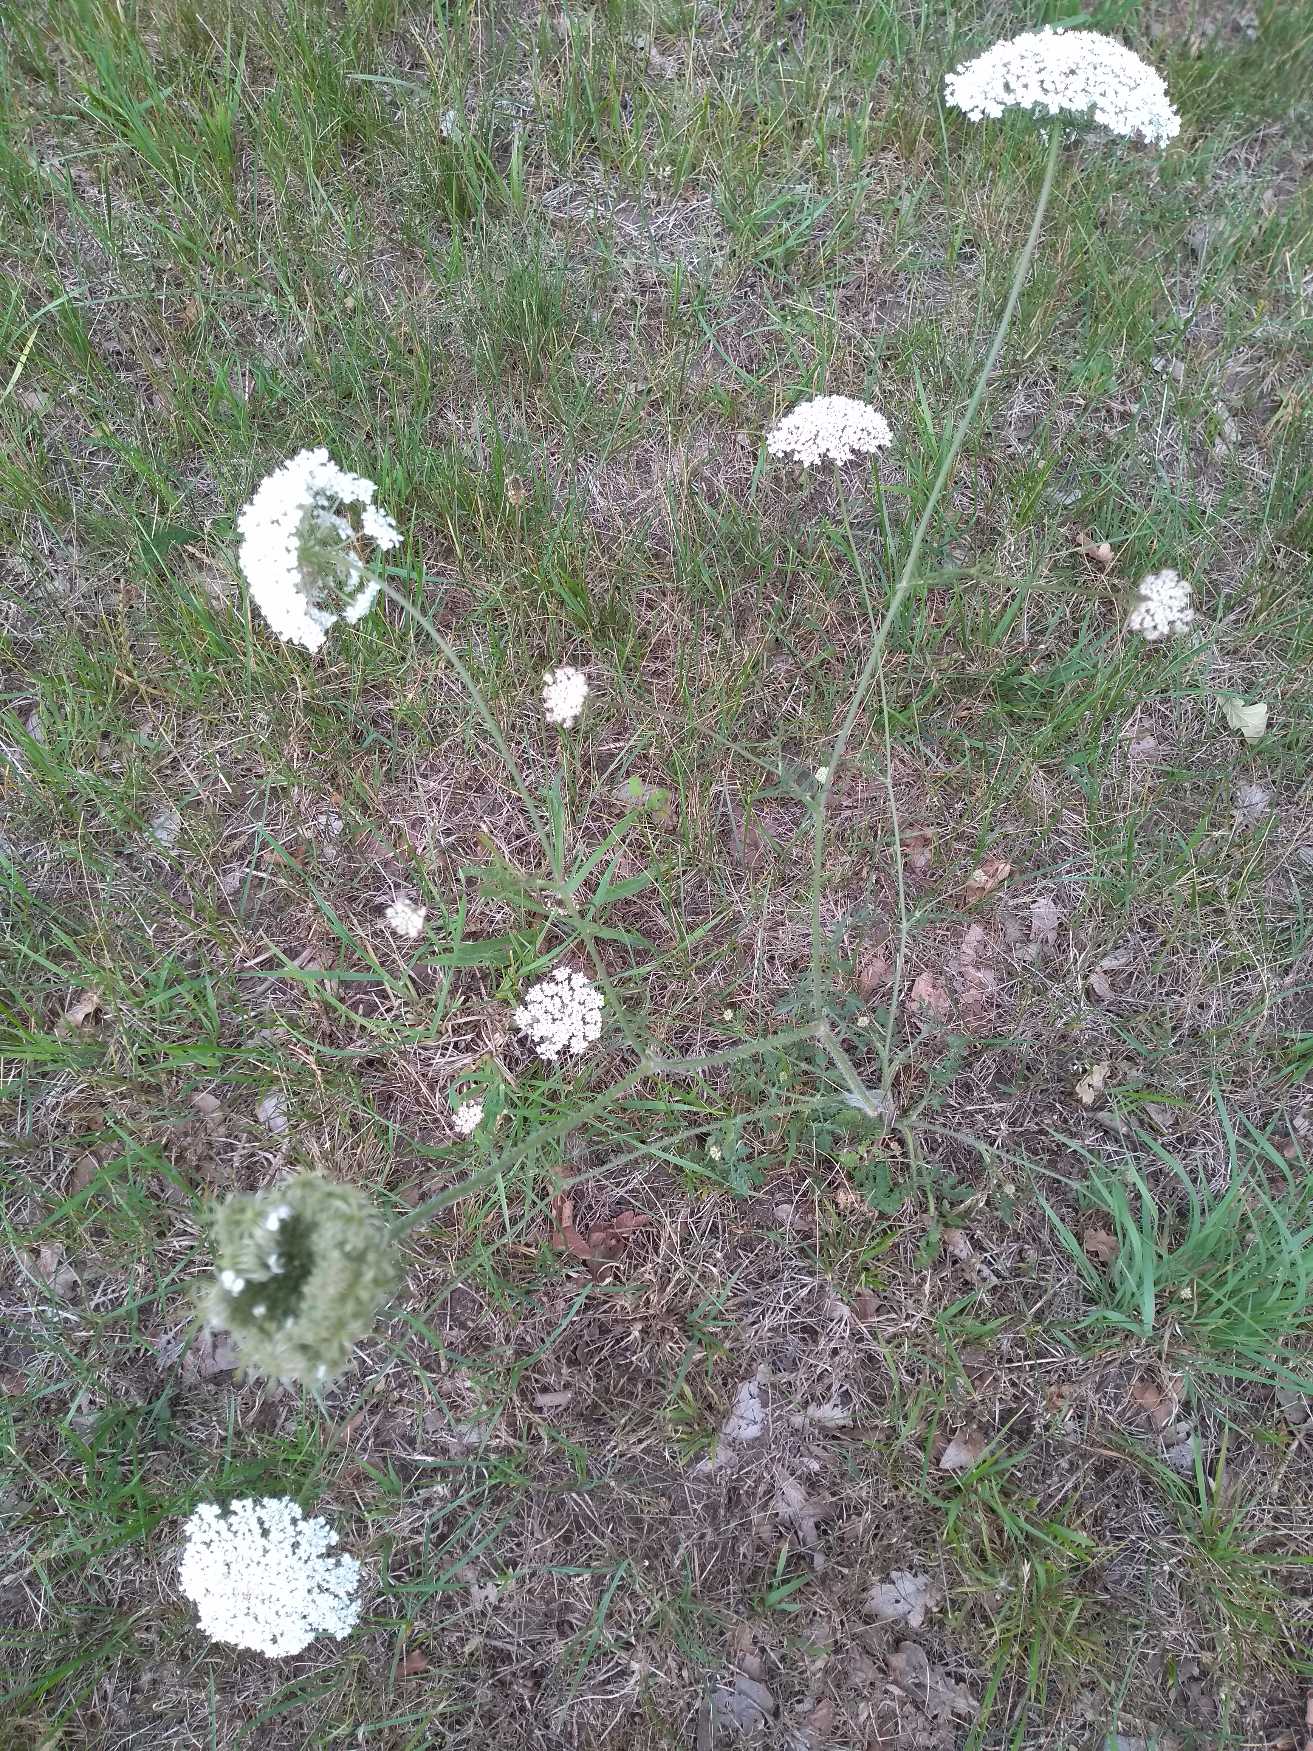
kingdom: Plantae
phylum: Tracheophyta
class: Magnoliopsida
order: Apiales
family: Apiaceae
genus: Daucus
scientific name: Daucus carota
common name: Gulerod
